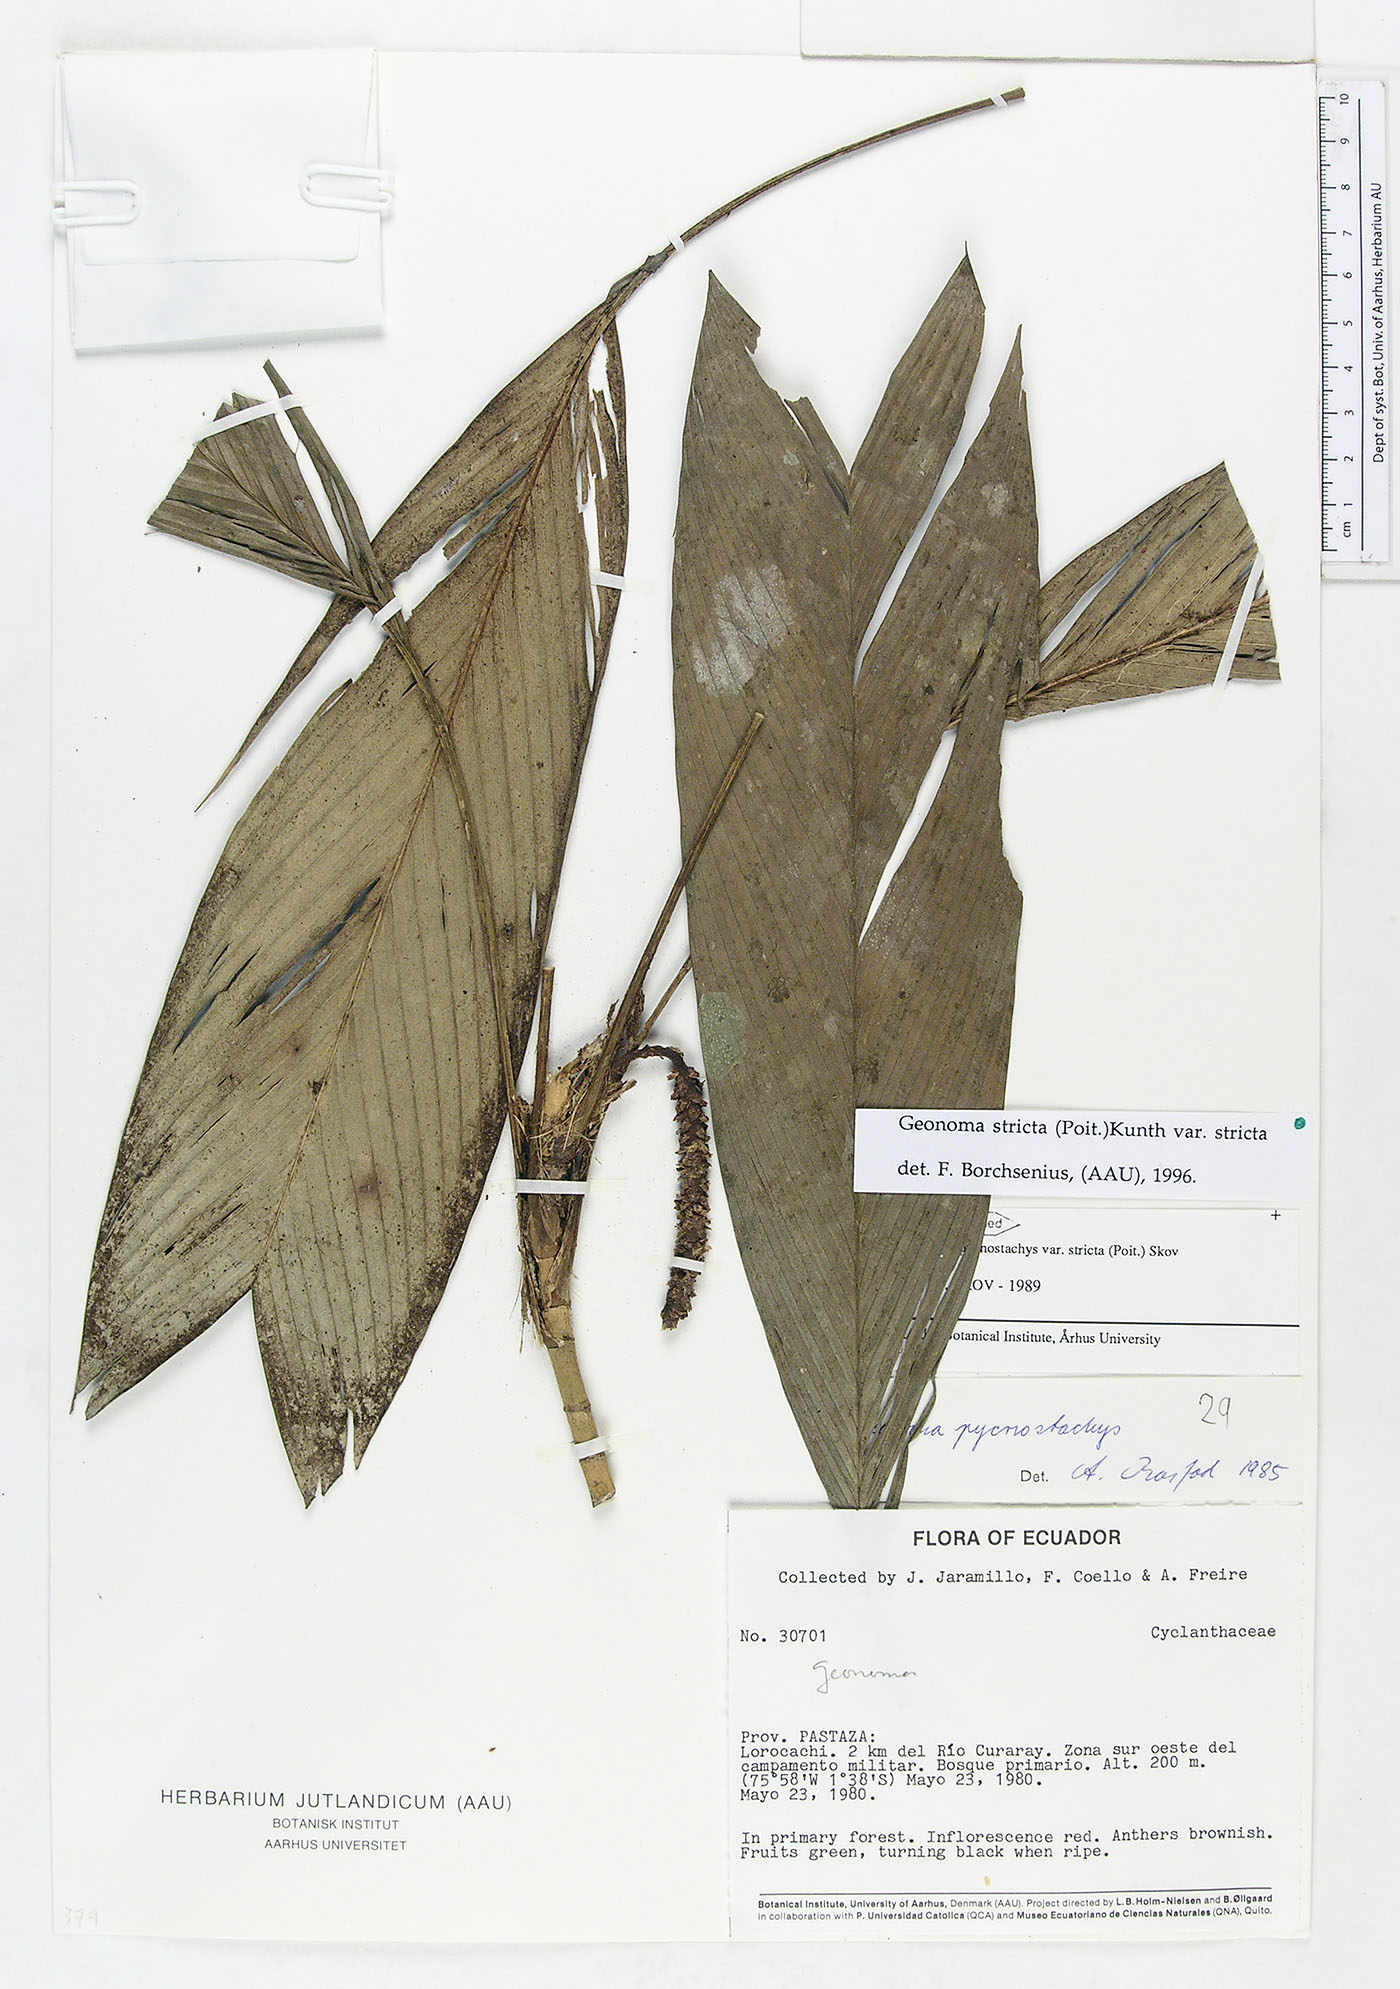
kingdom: Plantae
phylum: Tracheophyta
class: Liliopsida
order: Arecales
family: Arecaceae
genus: Geonoma
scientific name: Geonoma stricta
